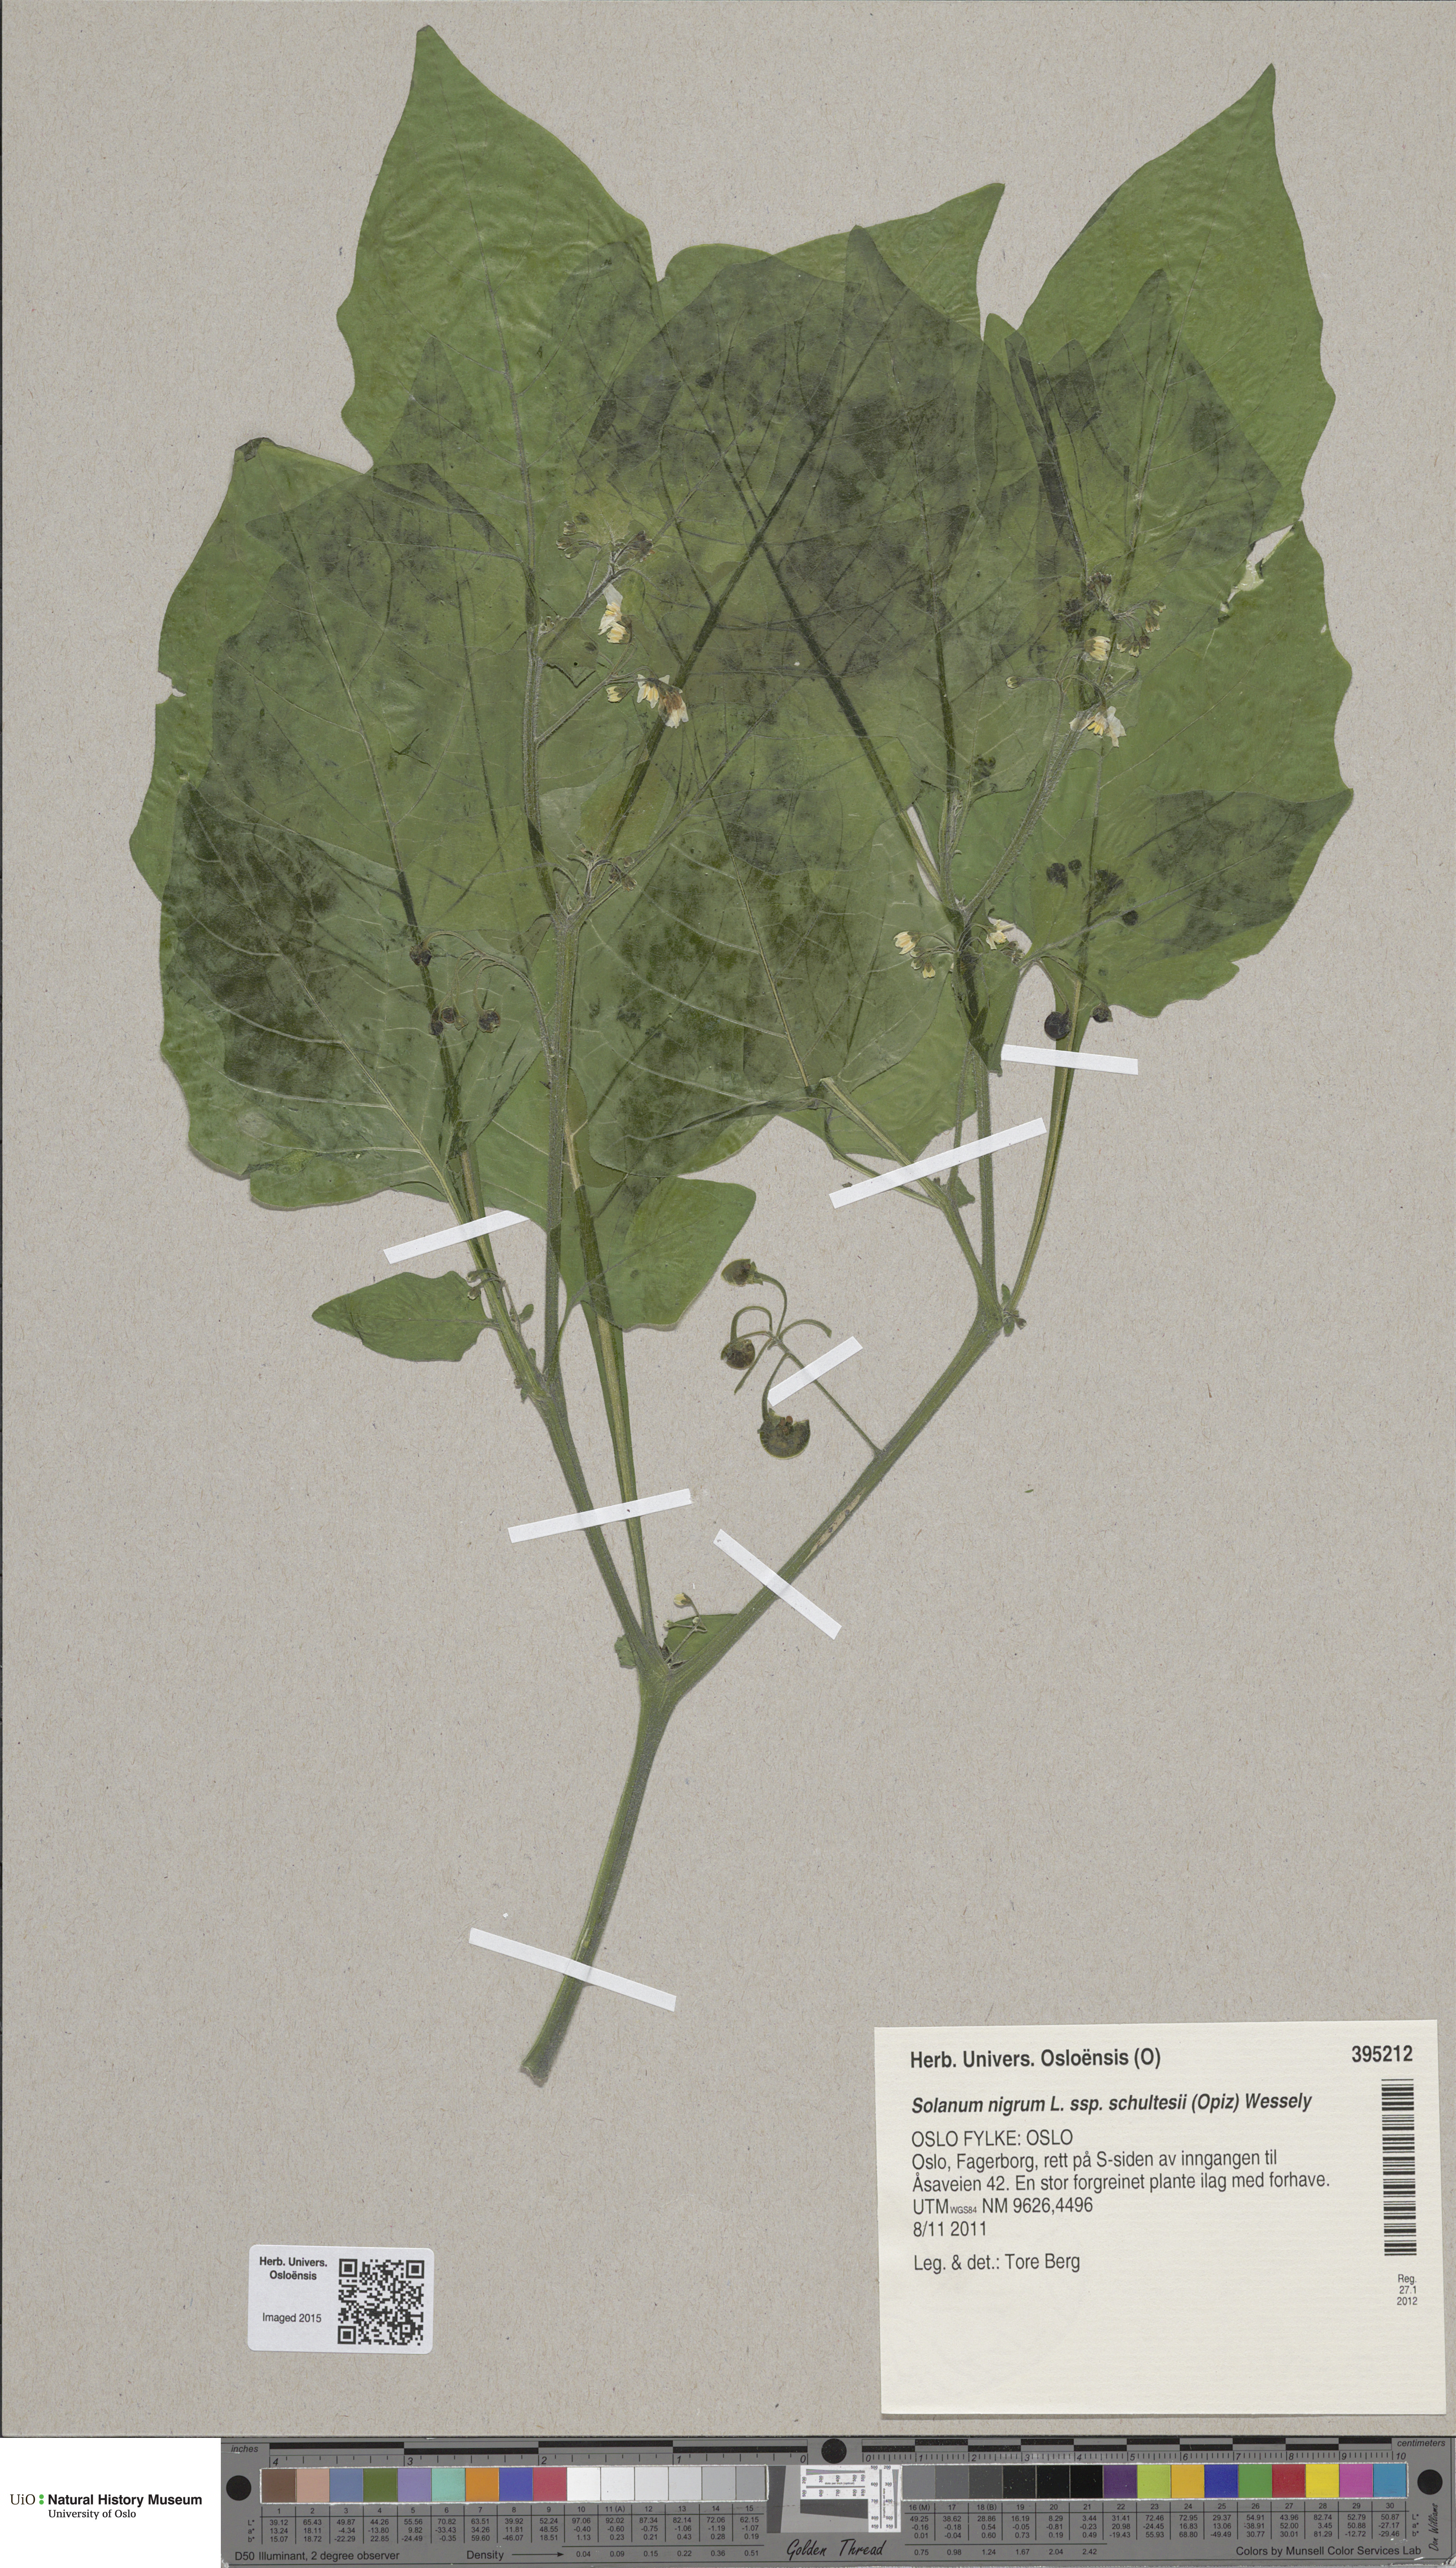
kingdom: Plantae
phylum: Tracheophyta
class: Magnoliopsida
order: Solanales
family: Solanaceae
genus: Solanum
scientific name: Solanum decipiens
